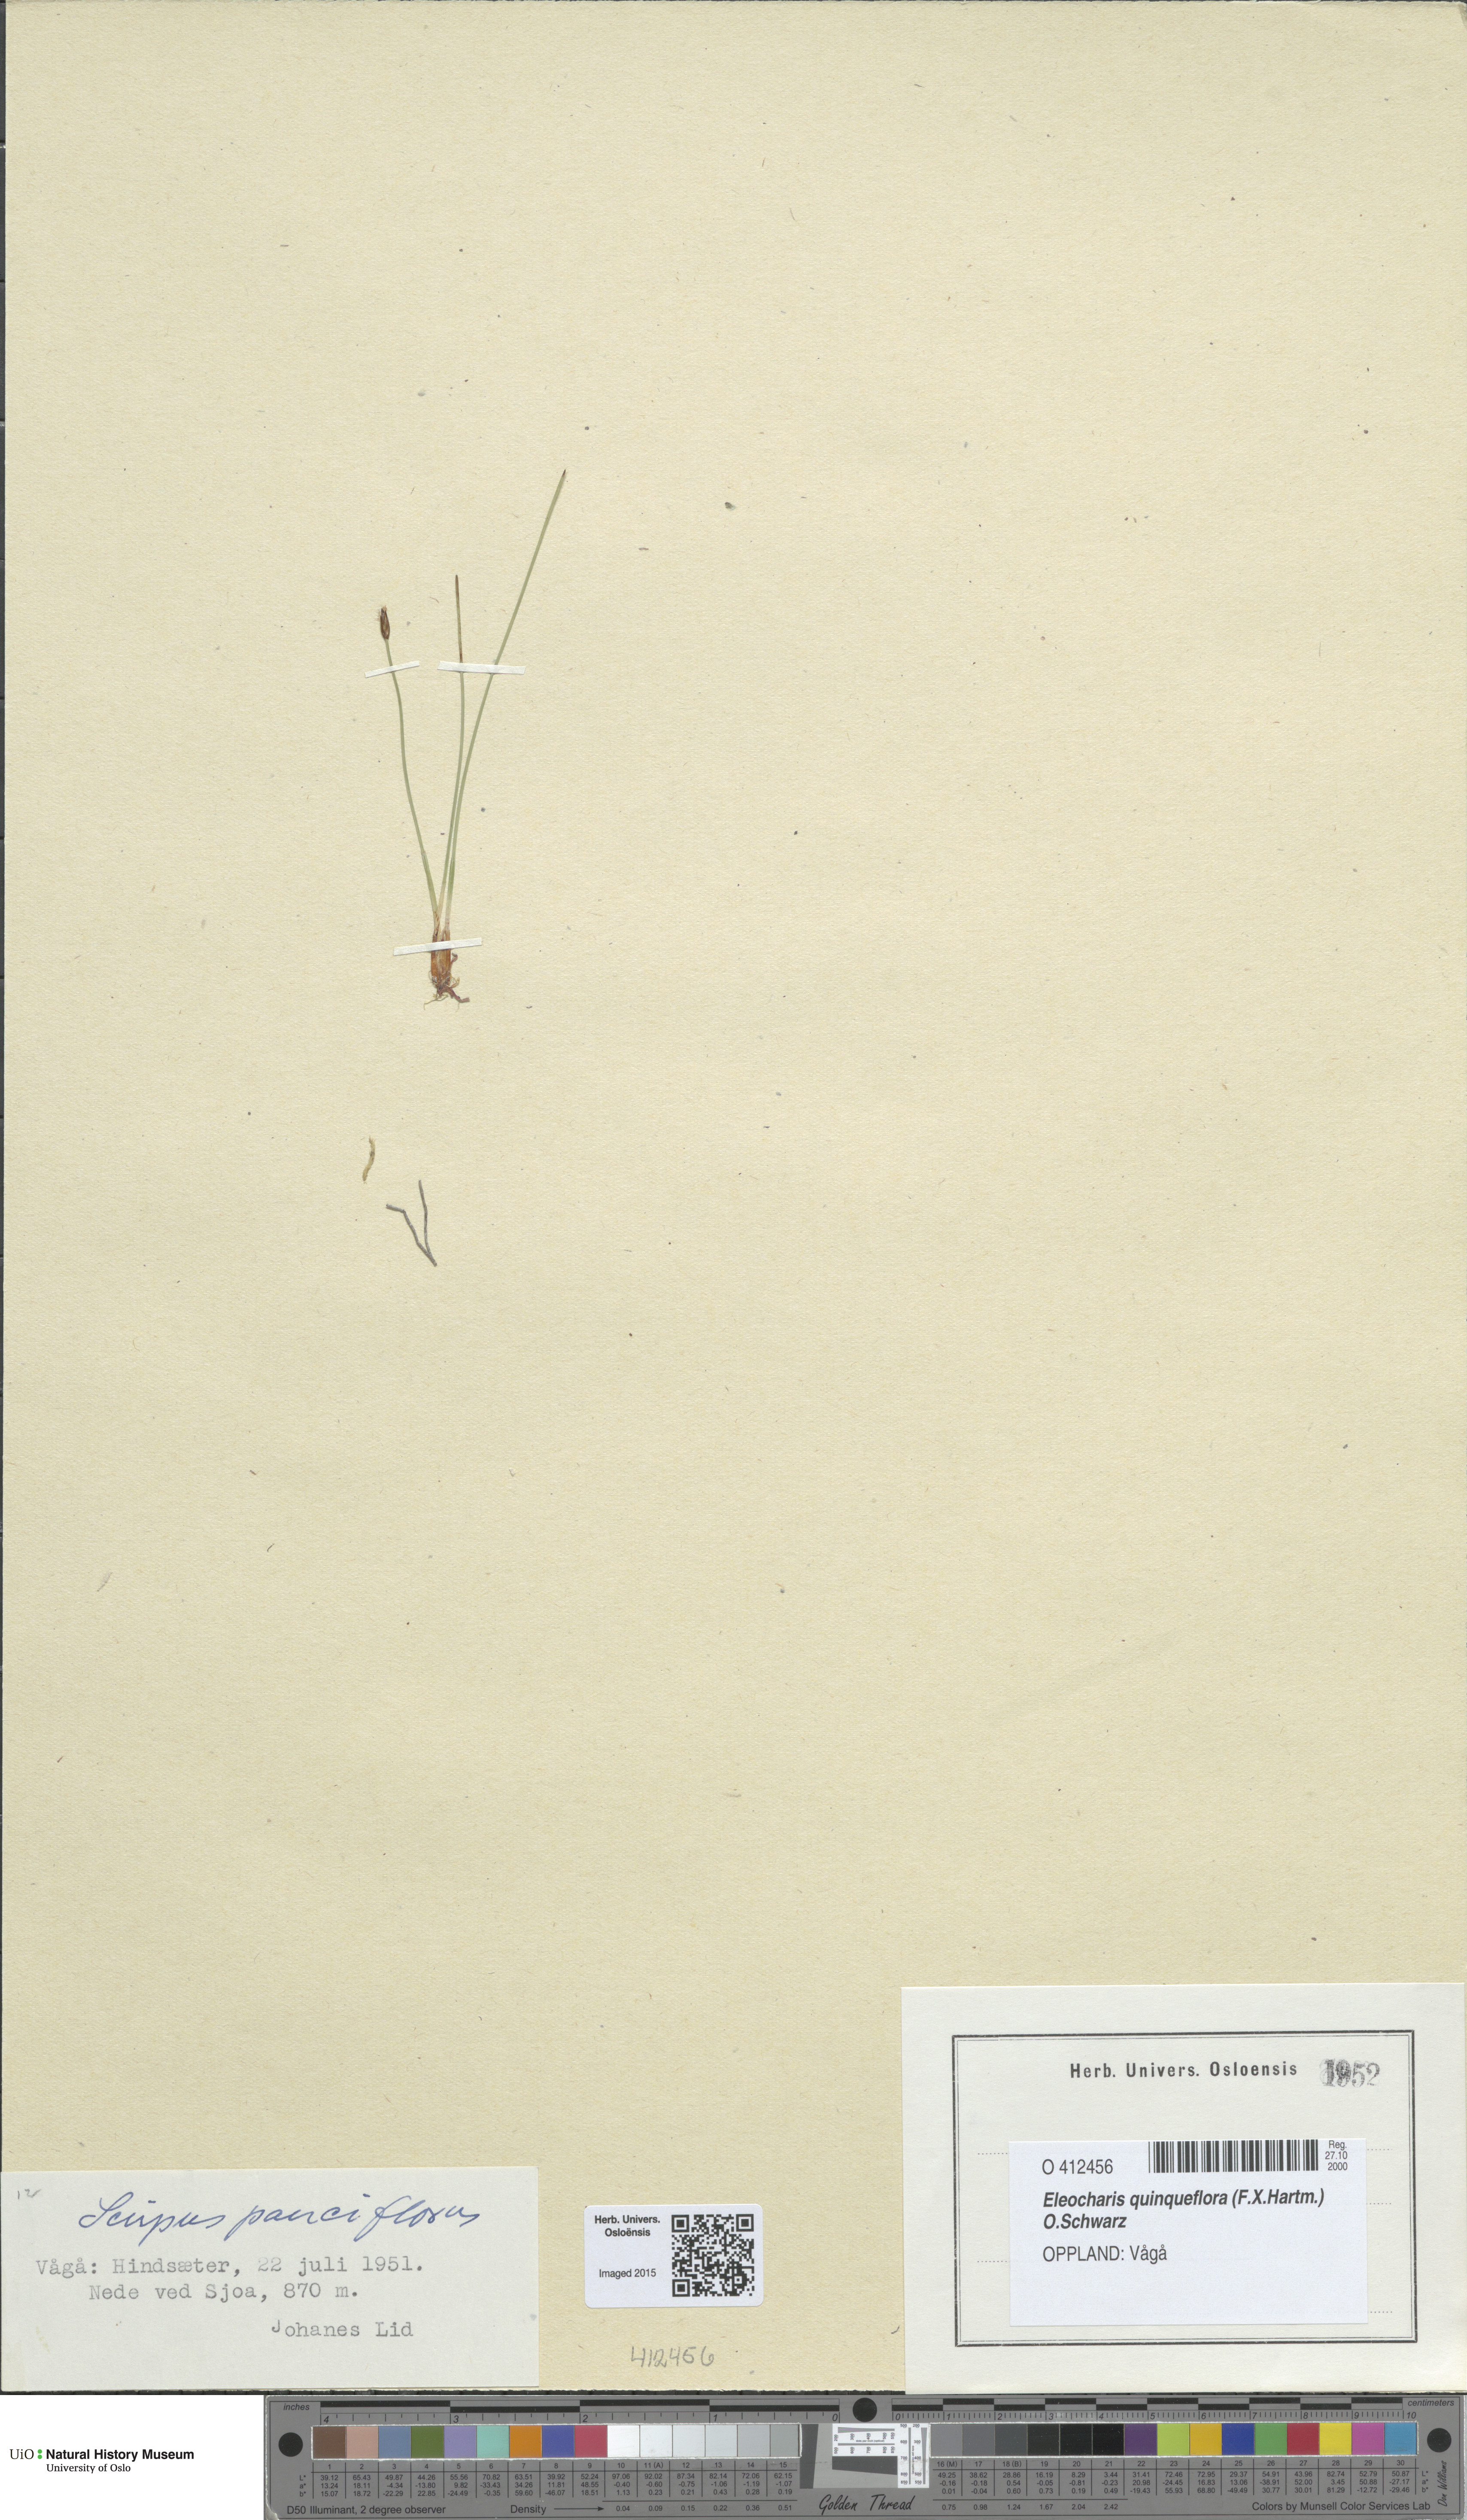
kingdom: Plantae
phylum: Tracheophyta
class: Liliopsida
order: Poales
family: Cyperaceae
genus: Eleocharis
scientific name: Eleocharis quinqueflora
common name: Few-flowered spike-rush
